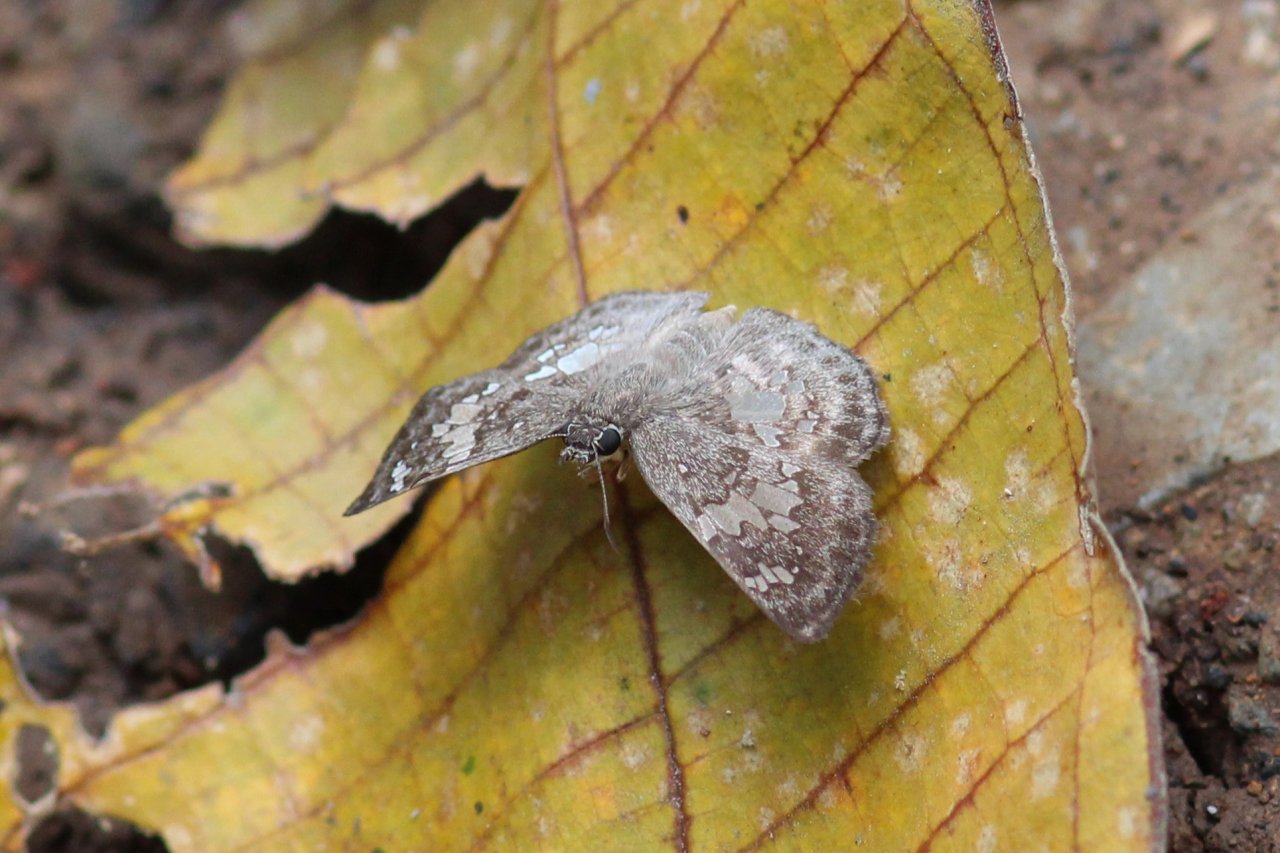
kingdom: Animalia
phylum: Arthropoda
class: Insecta
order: Lepidoptera
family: Hesperiidae
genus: Xenophanes
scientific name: Xenophanes tryxus
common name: Glassy-winged Skipper
